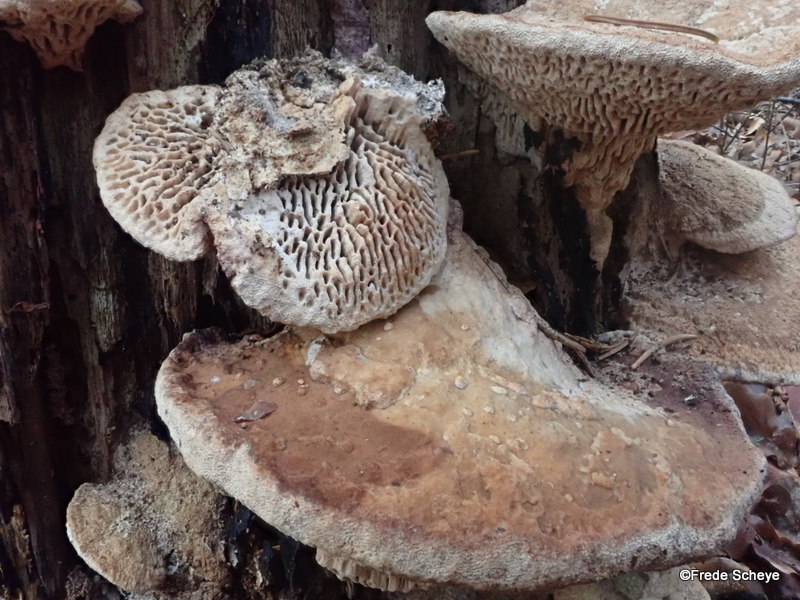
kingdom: Fungi
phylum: Basidiomycota
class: Agaricomycetes
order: Polyporales
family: Fomitopsidaceae
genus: Daedalea
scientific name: Daedalea quercina
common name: ege-labyrintsvamp
